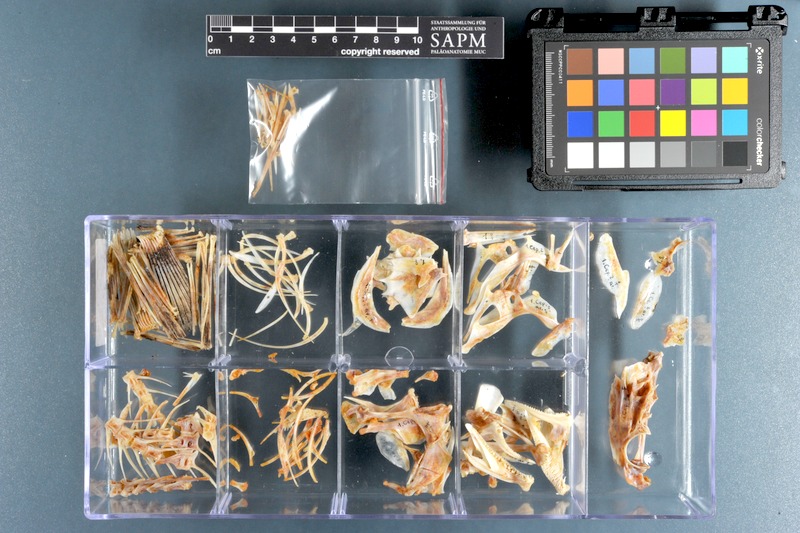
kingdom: Animalia
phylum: Chordata
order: Perciformes
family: Serranidae
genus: Cephalopholis
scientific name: Cephalopholis argus
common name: Peacock grouper
